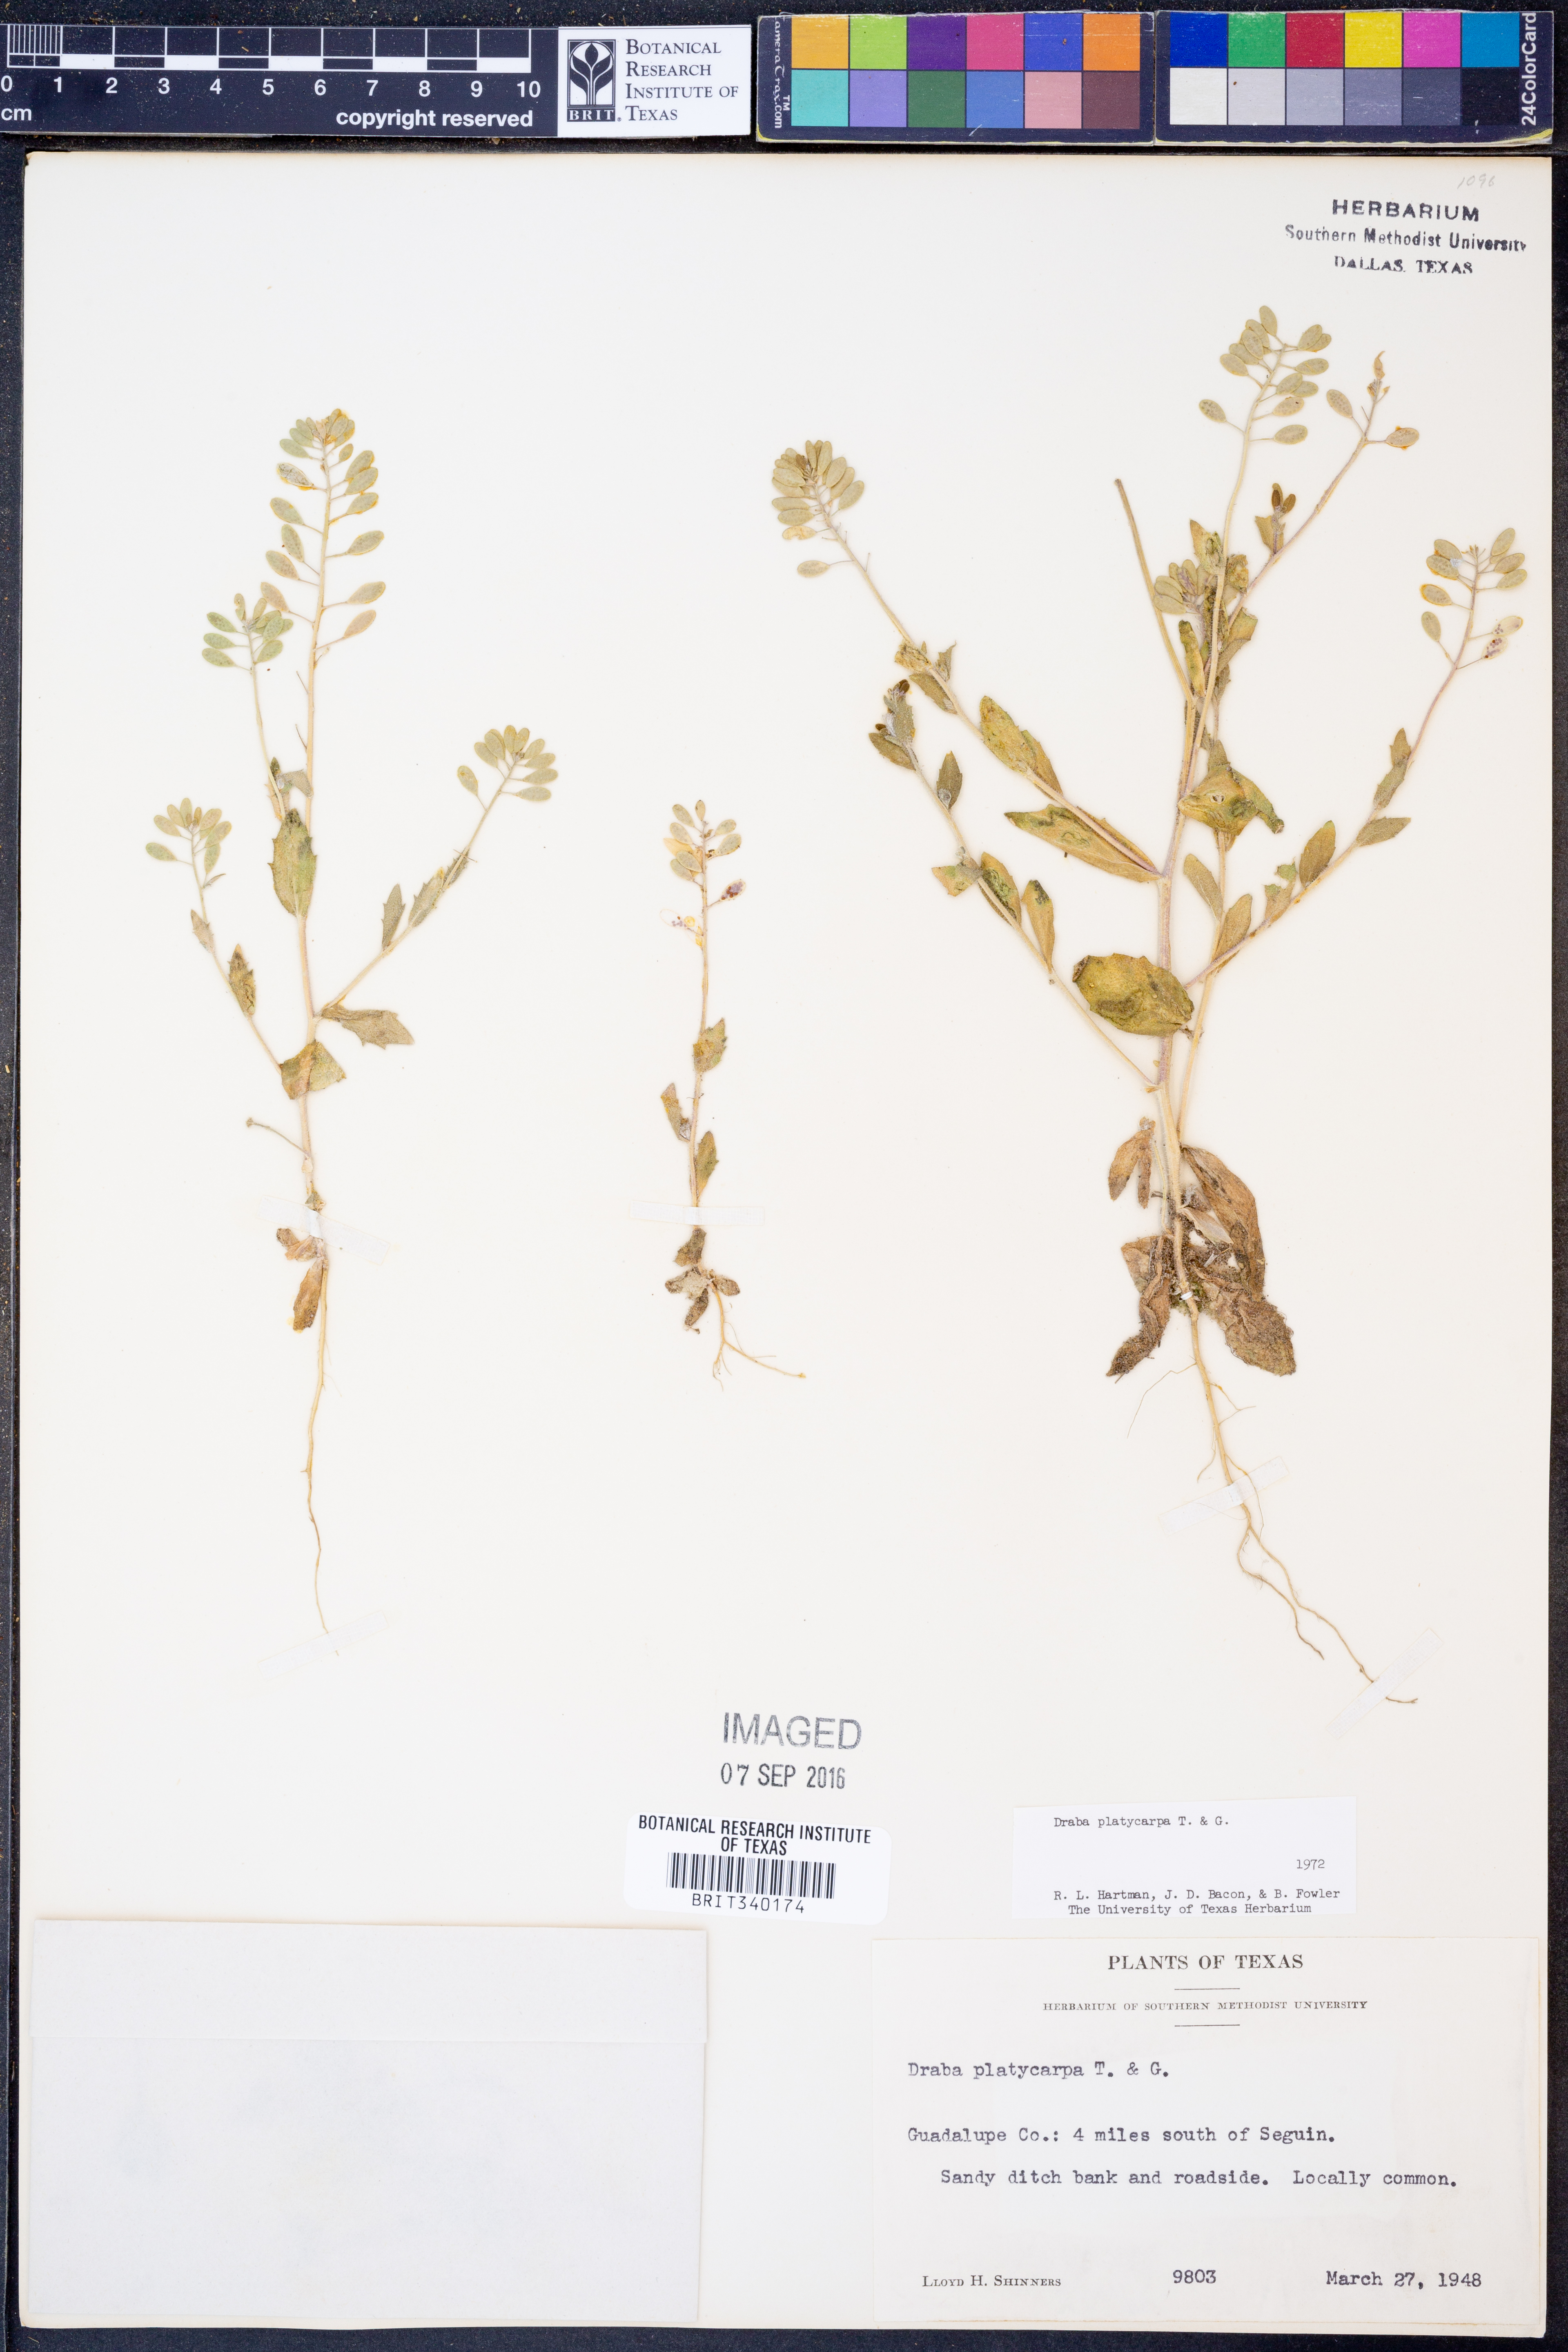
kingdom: Plantae
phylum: Tracheophyta
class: Magnoliopsida
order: Brassicales
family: Brassicaceae
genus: Tomostima
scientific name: Tomostima platycarpa
